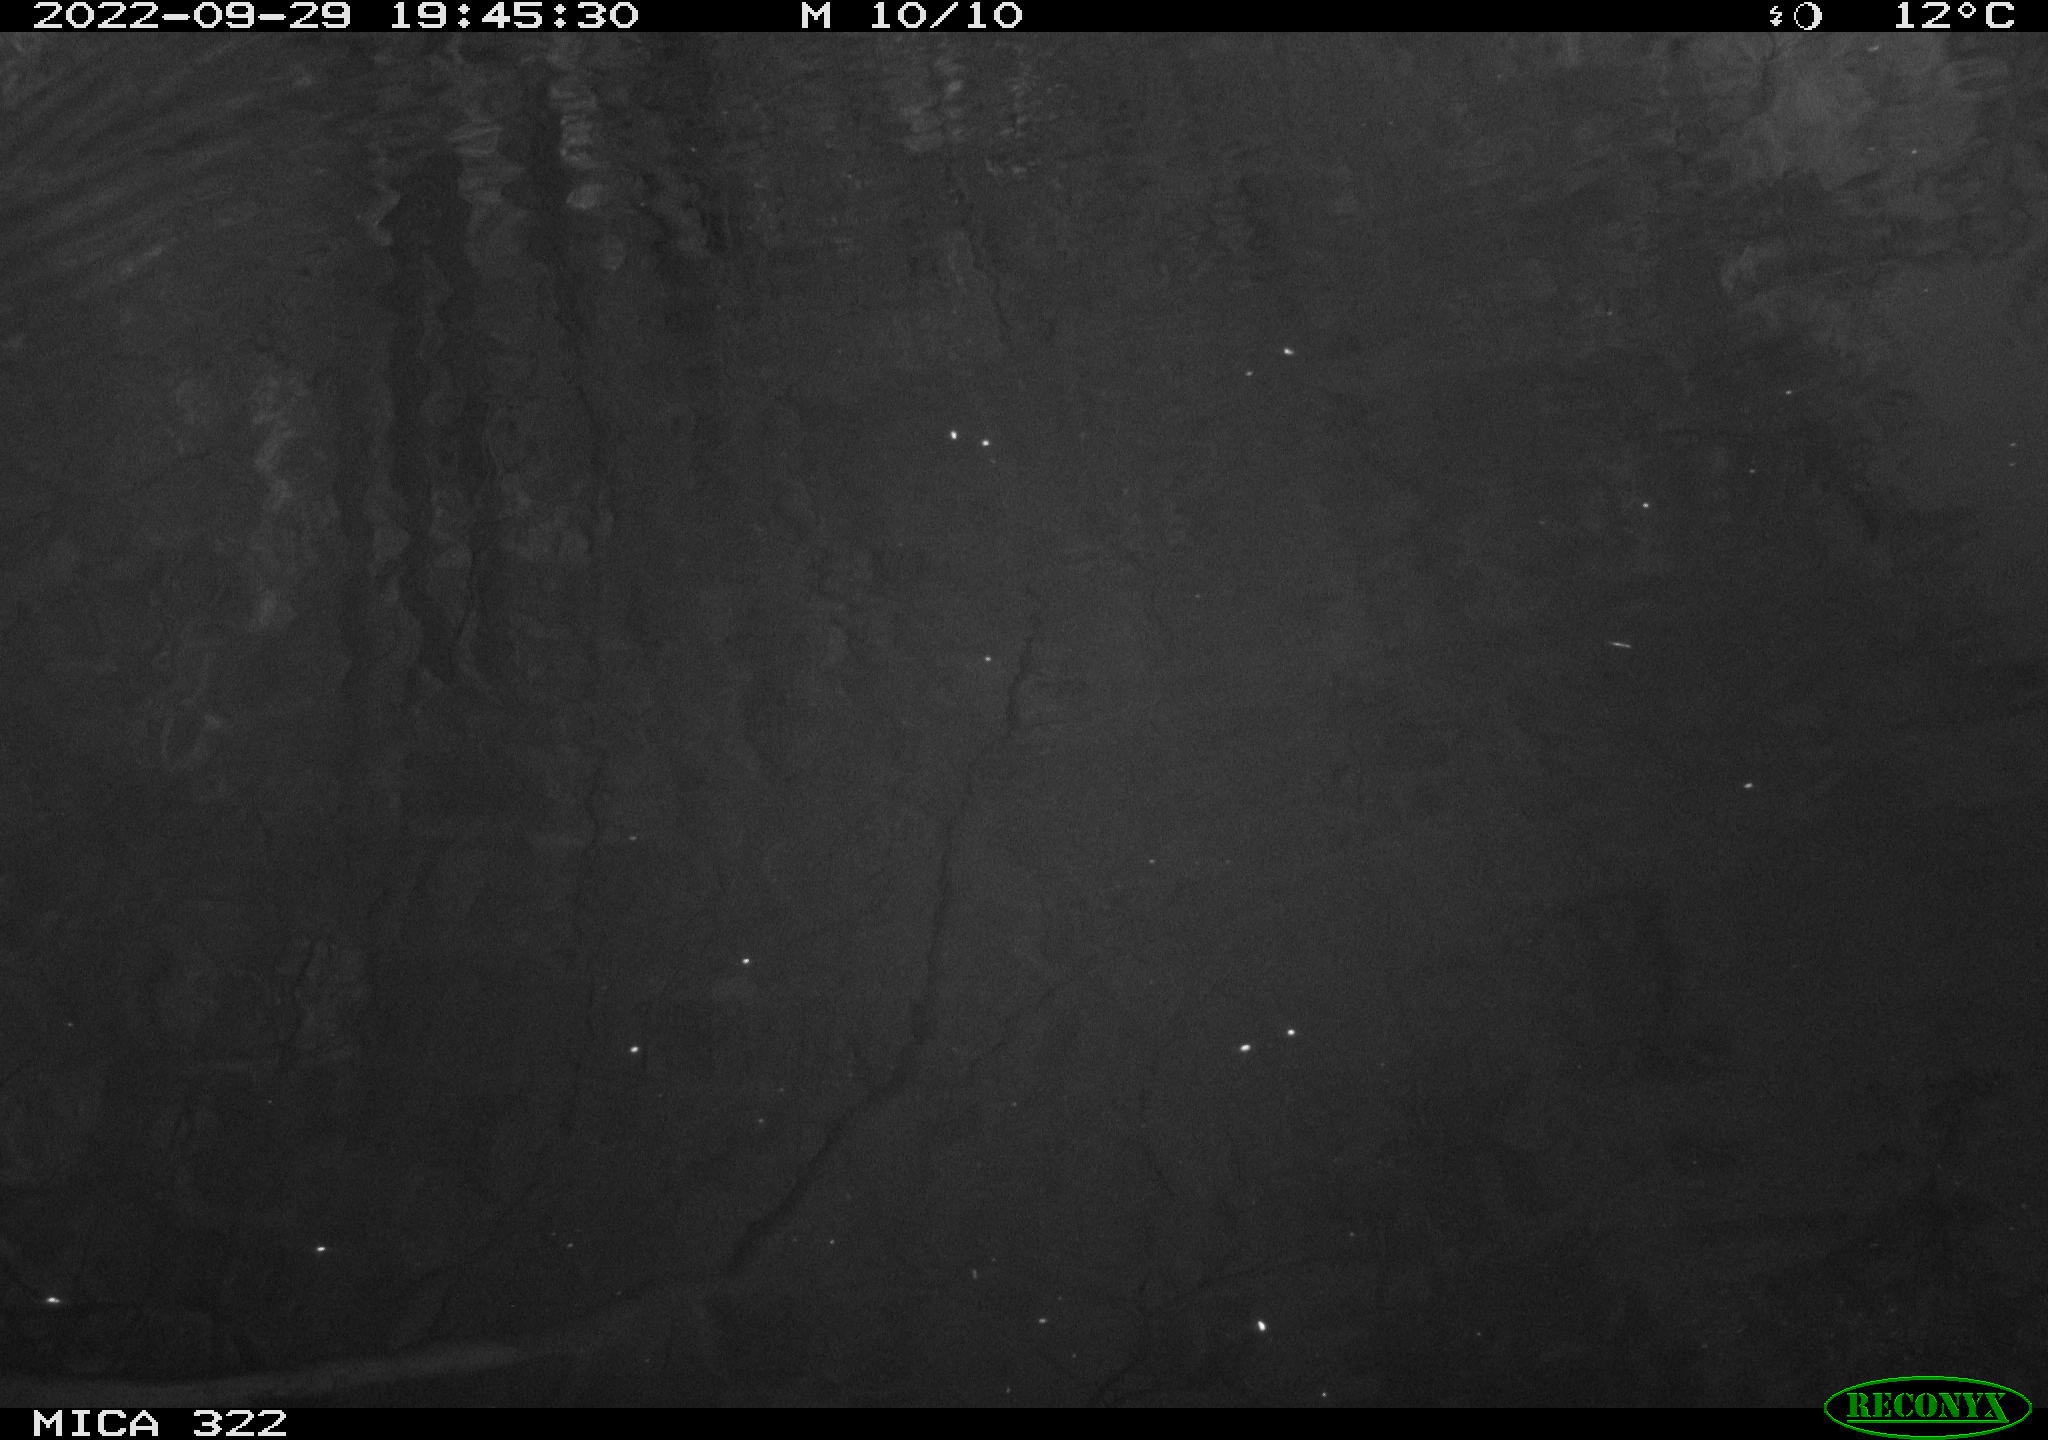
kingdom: Animalia
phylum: Chordata
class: Mammalia
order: Rodentia
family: Muridae
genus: Rattus
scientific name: Rattus norvegicus
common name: Brown rat
